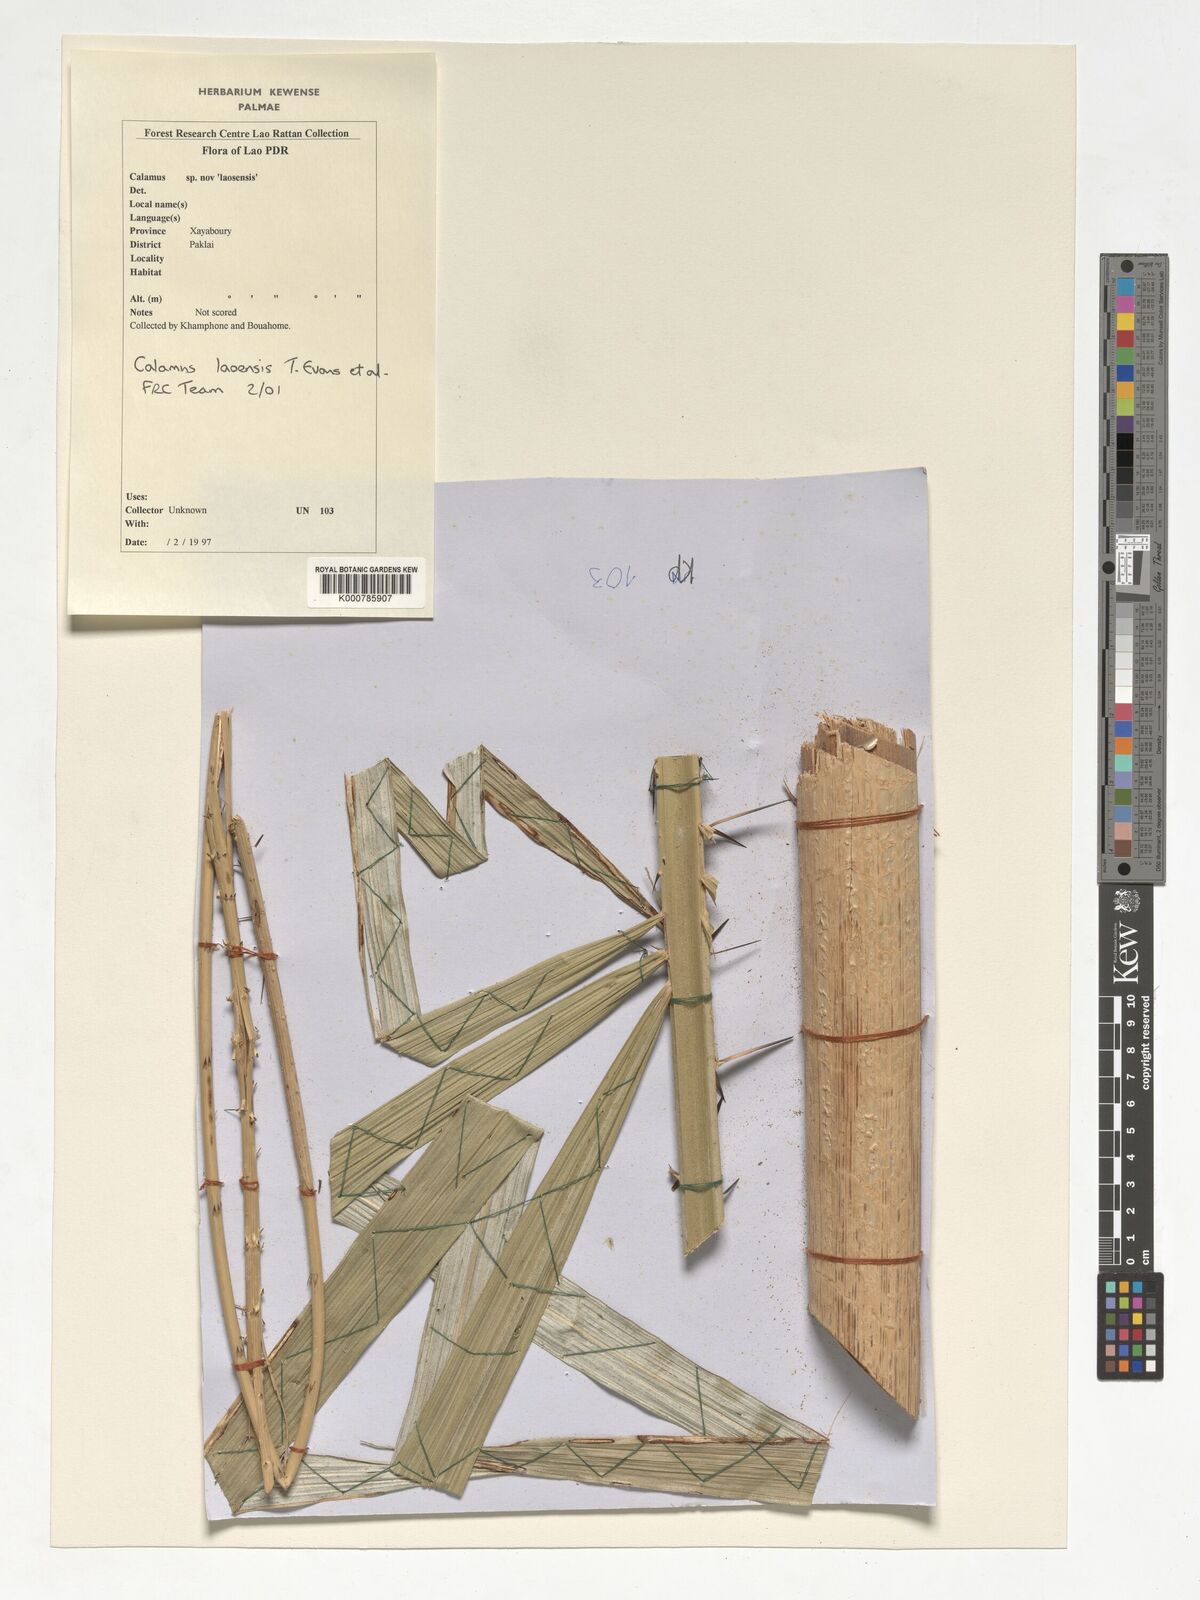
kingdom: Plantae
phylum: Tracheophyta
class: Liliopsida
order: Arecales
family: Arecaceae
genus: Calamus
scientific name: Calamus laoensis
